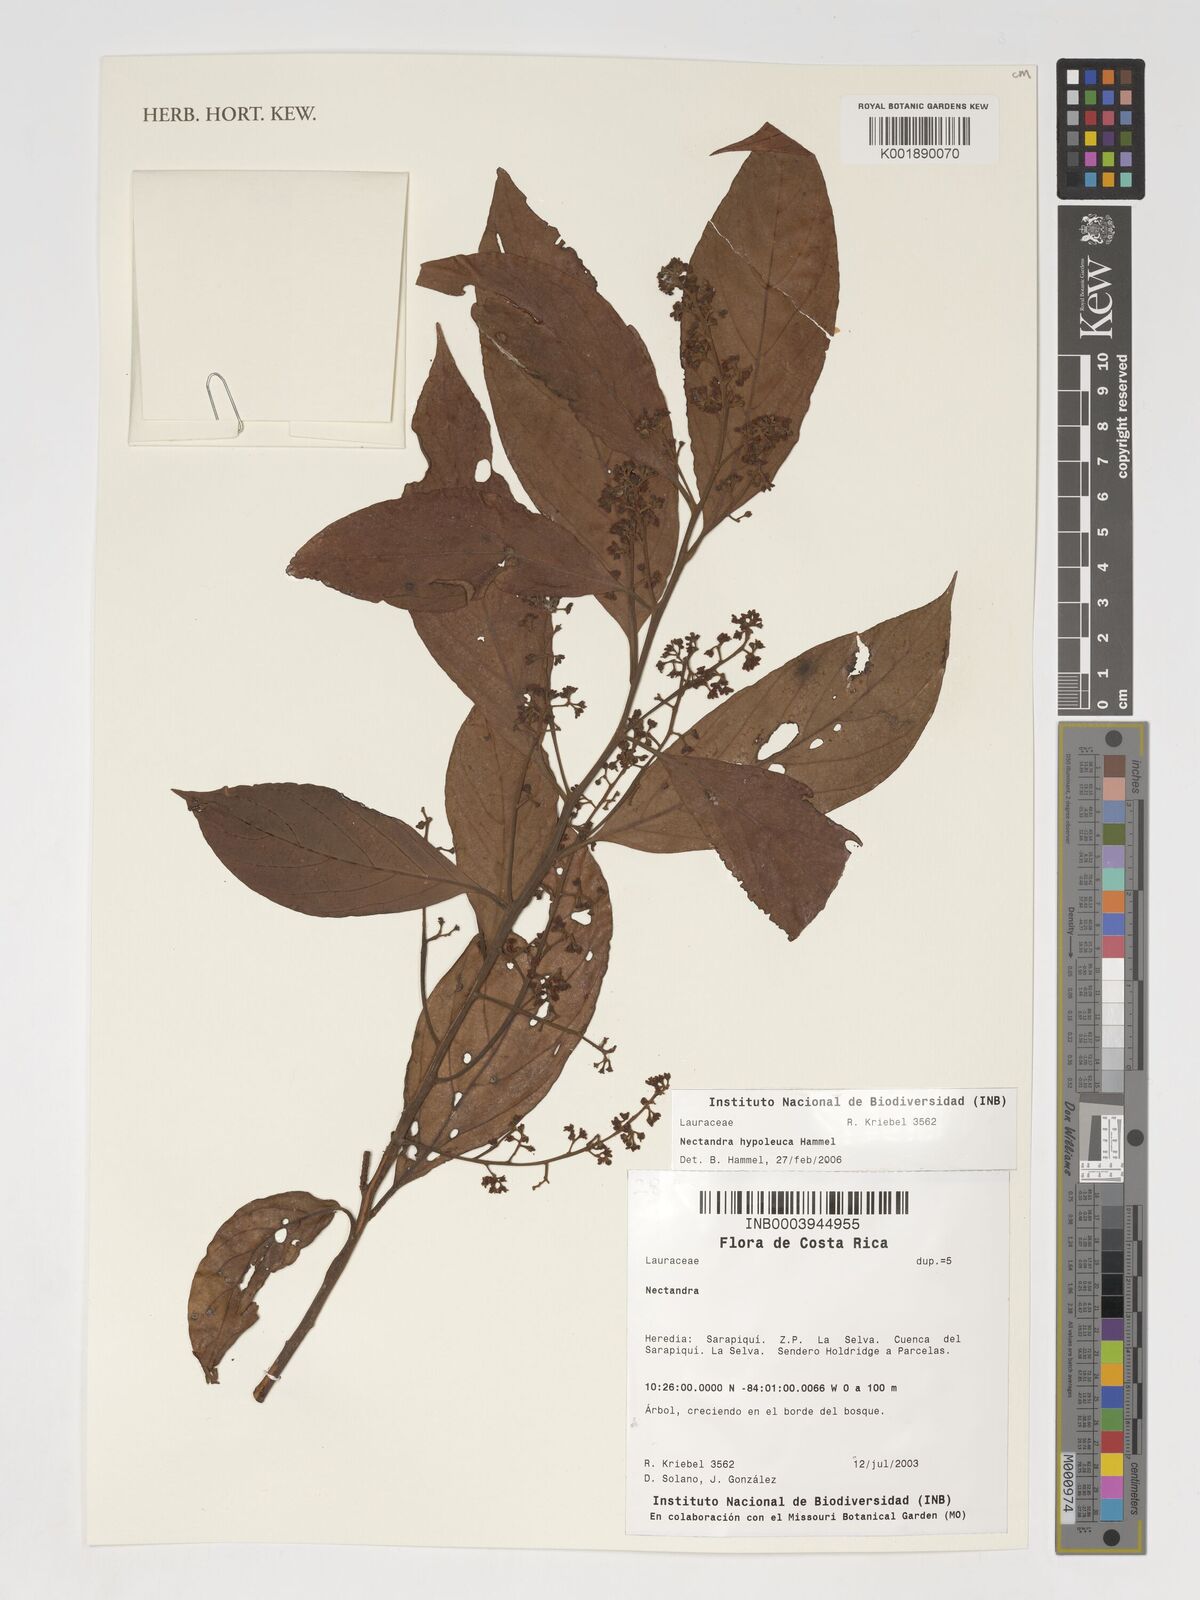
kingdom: Plantae
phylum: Tracheophyta
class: Magnoliopsida
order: Laurales
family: Lauraceae
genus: Nectandra
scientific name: Nectandra hypoleuca
